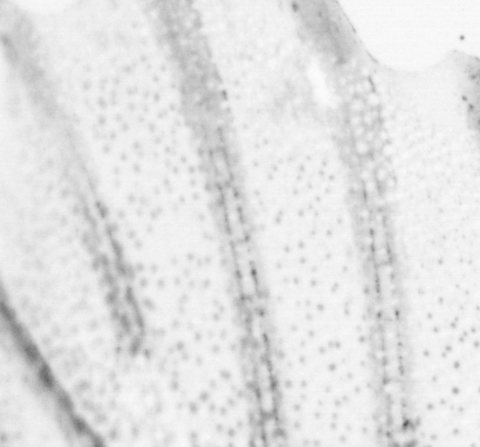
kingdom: Animalia
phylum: Chordata
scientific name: Chordata
